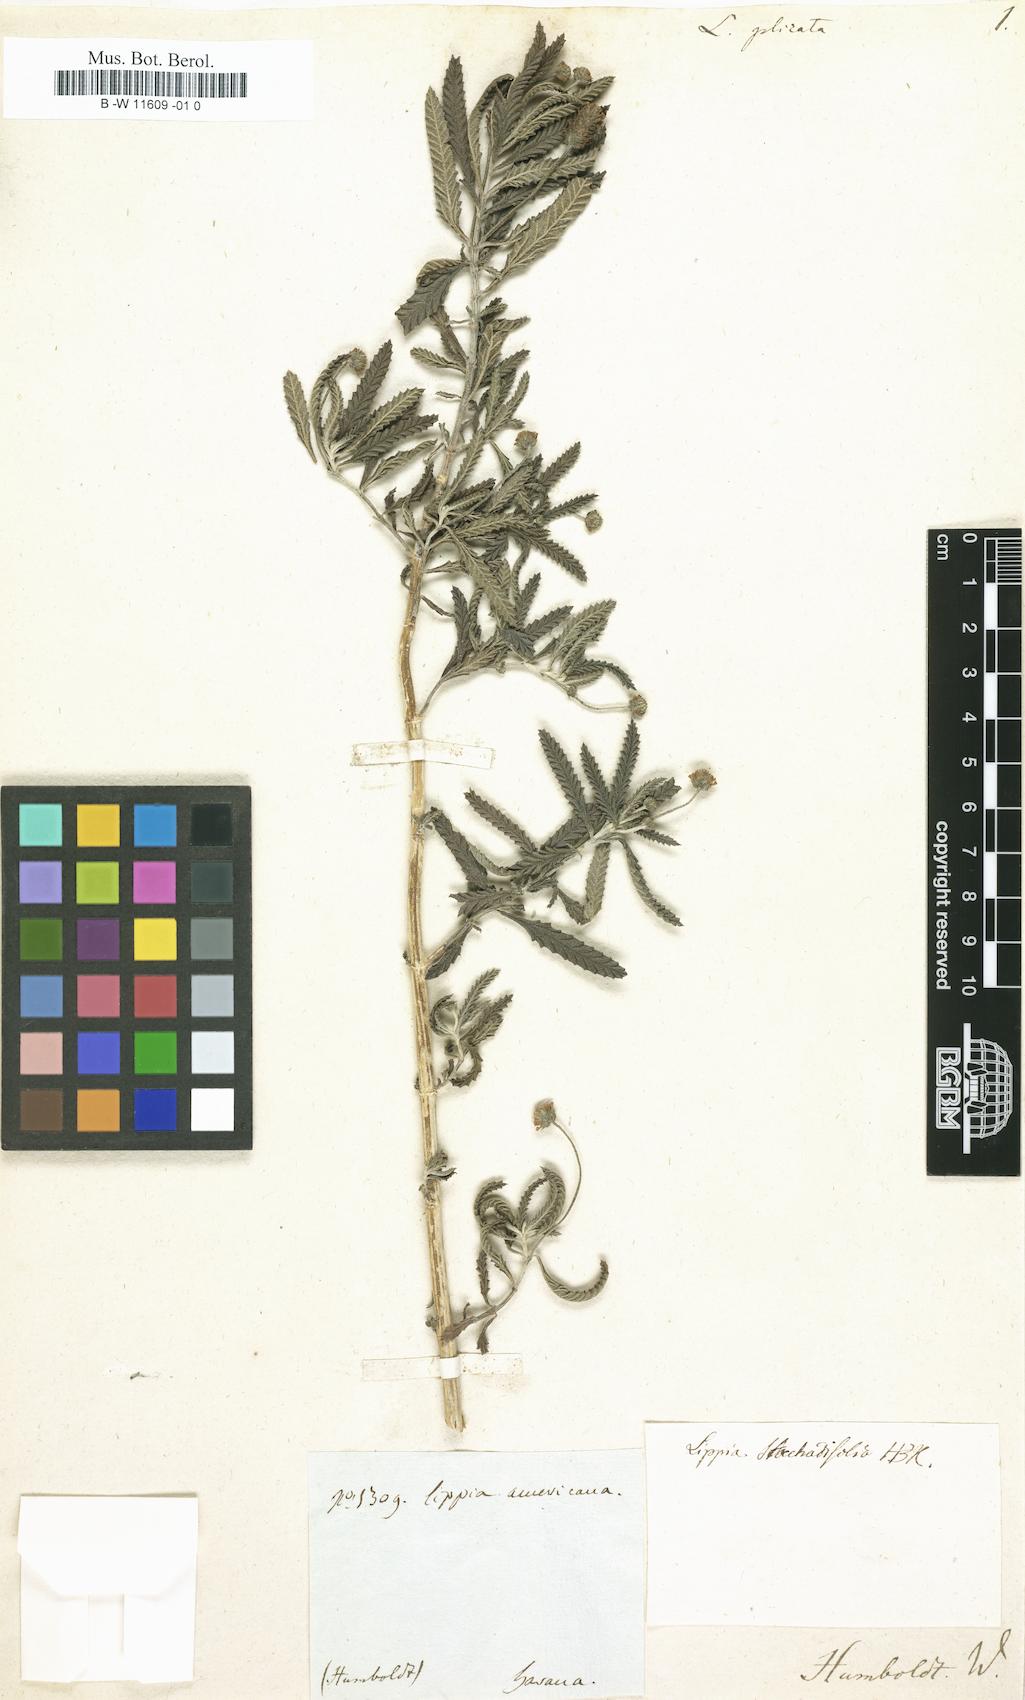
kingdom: Plantae
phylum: Tracheophyta
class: Magnoliopsida
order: Lamiales
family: Verbenaceae
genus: Lippia
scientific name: Lippia plicata
